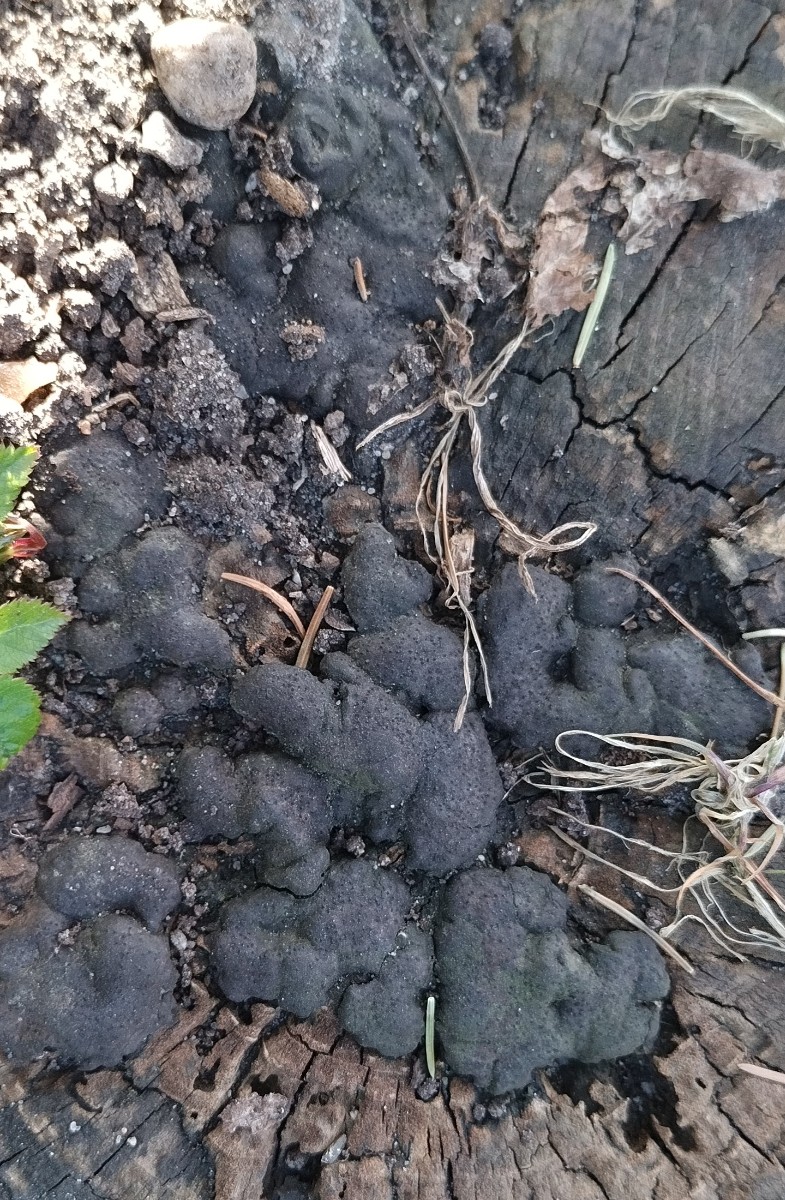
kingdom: Fungi
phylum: Ascomycota
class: Sordariomycetes
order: Xylariales
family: Xylariaceae
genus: Kretzschmaria
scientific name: Kretzschmaria deusta
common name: stor kulsvamp
